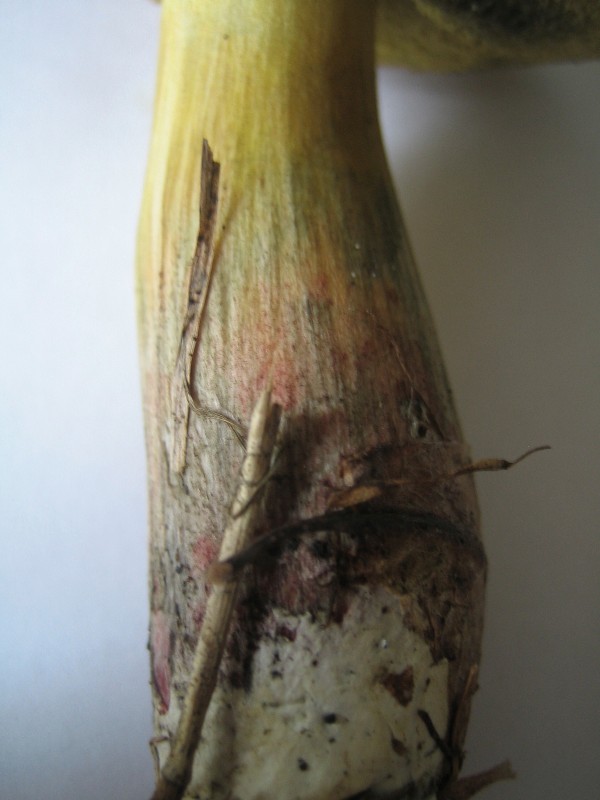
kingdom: Fungi
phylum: Basidiomycota
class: Agaricomycetes
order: Boletales
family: Boletaceae
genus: Xerocomellus
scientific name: Xerocomellus cisalpinus
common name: finsprukken rørhat
